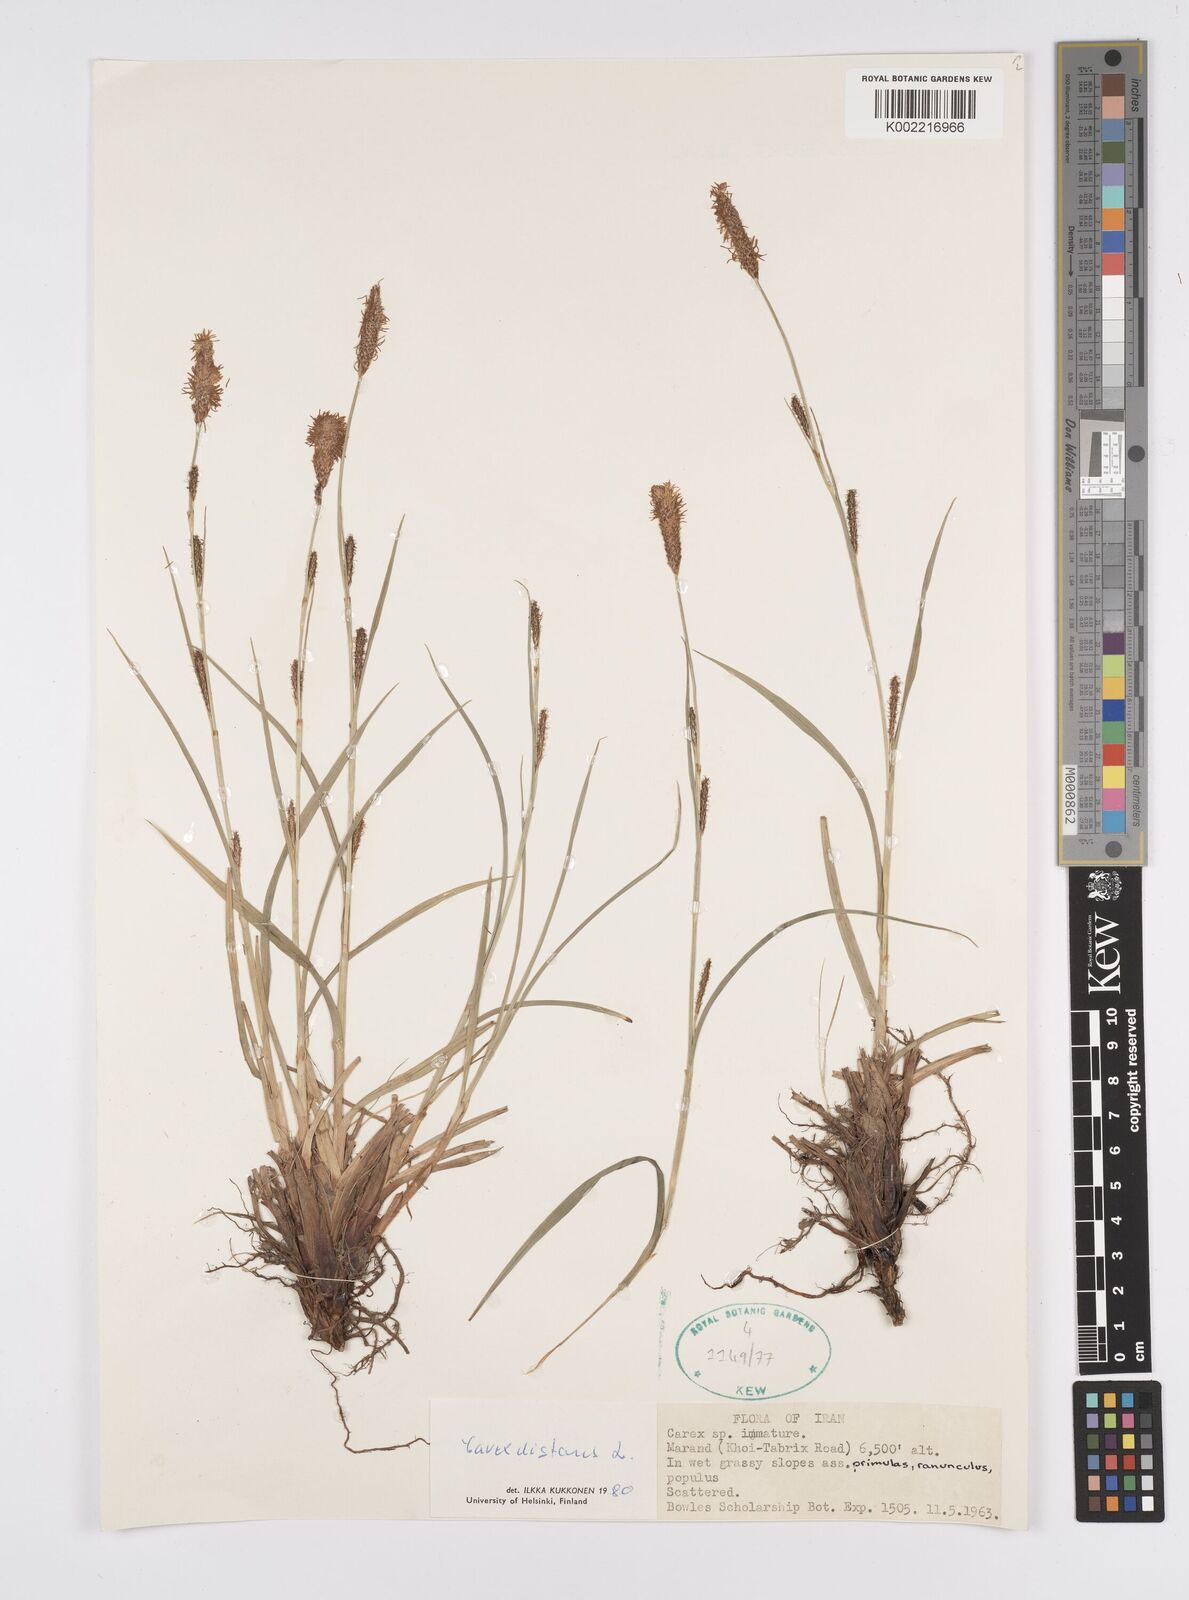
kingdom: Plantae
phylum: Tracheophyta
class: Liliopsida
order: Poales
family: Cyperaceae
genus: Carex
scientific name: Carex distans
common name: Distant sedge
